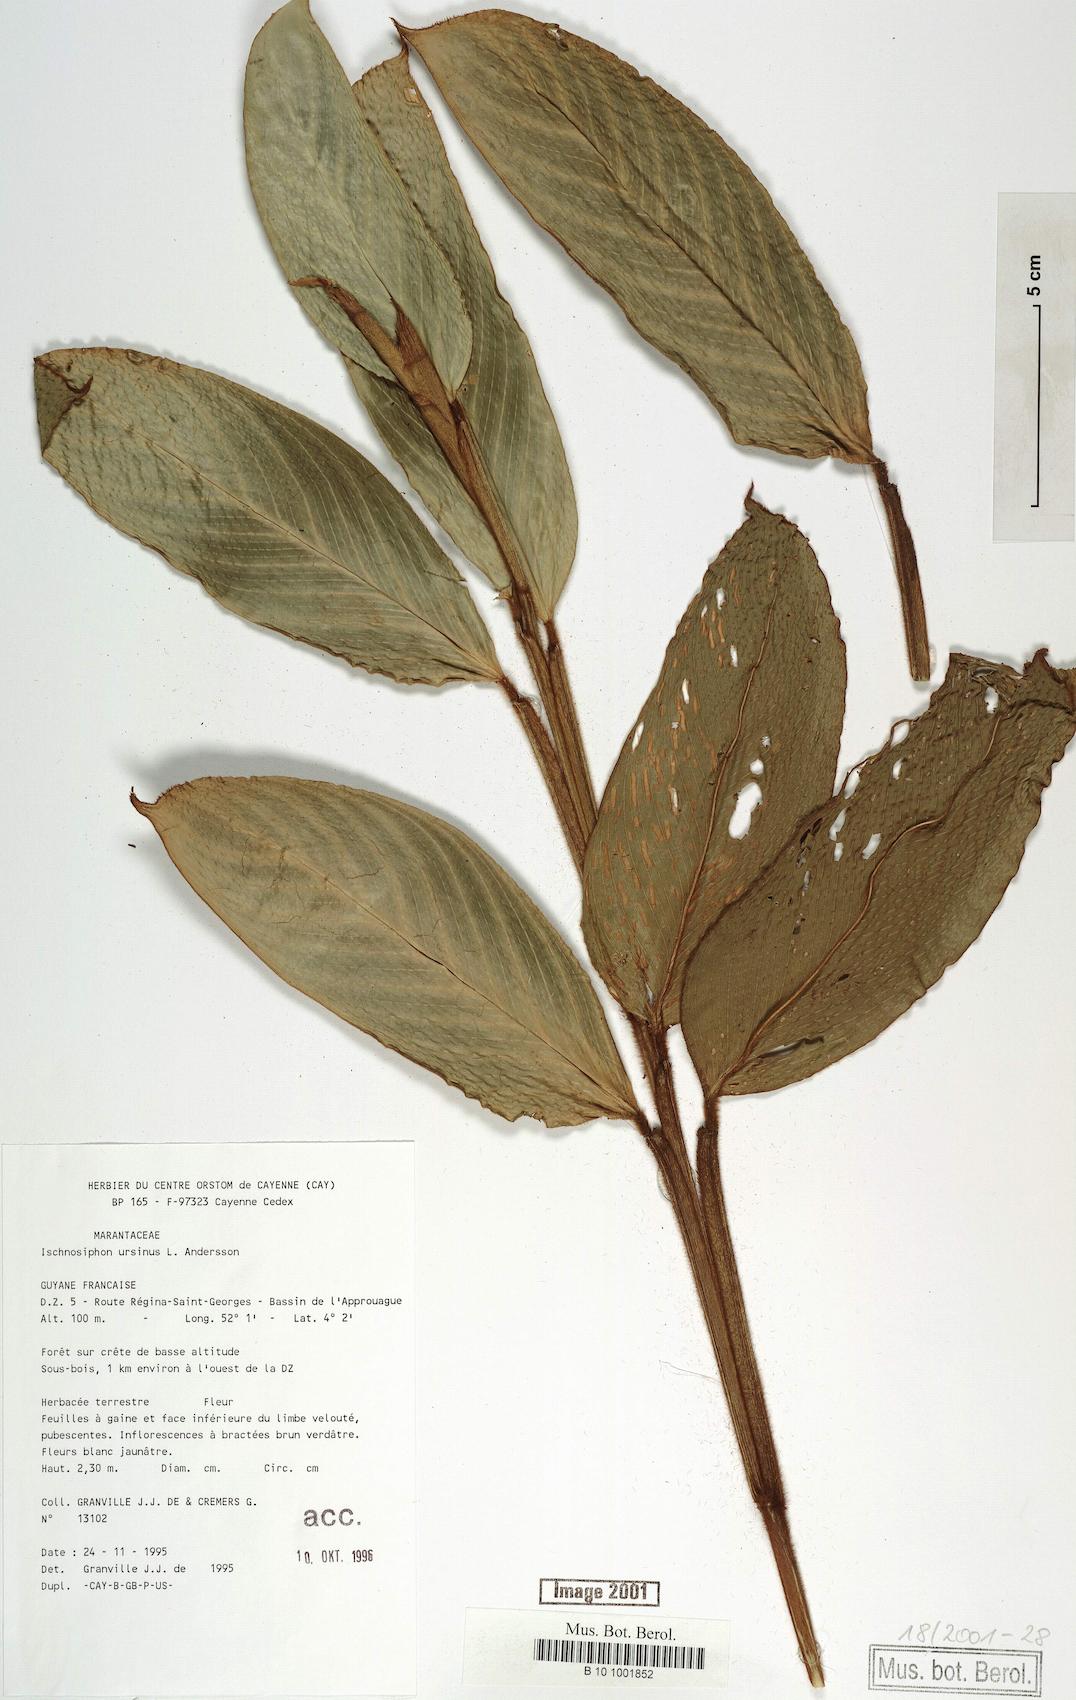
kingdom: Plantae
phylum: Tracheophyta
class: Liliopsida
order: Zingiberales
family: Marantaceae
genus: Ischnosiphon
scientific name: Ischnosiphon ursinus
